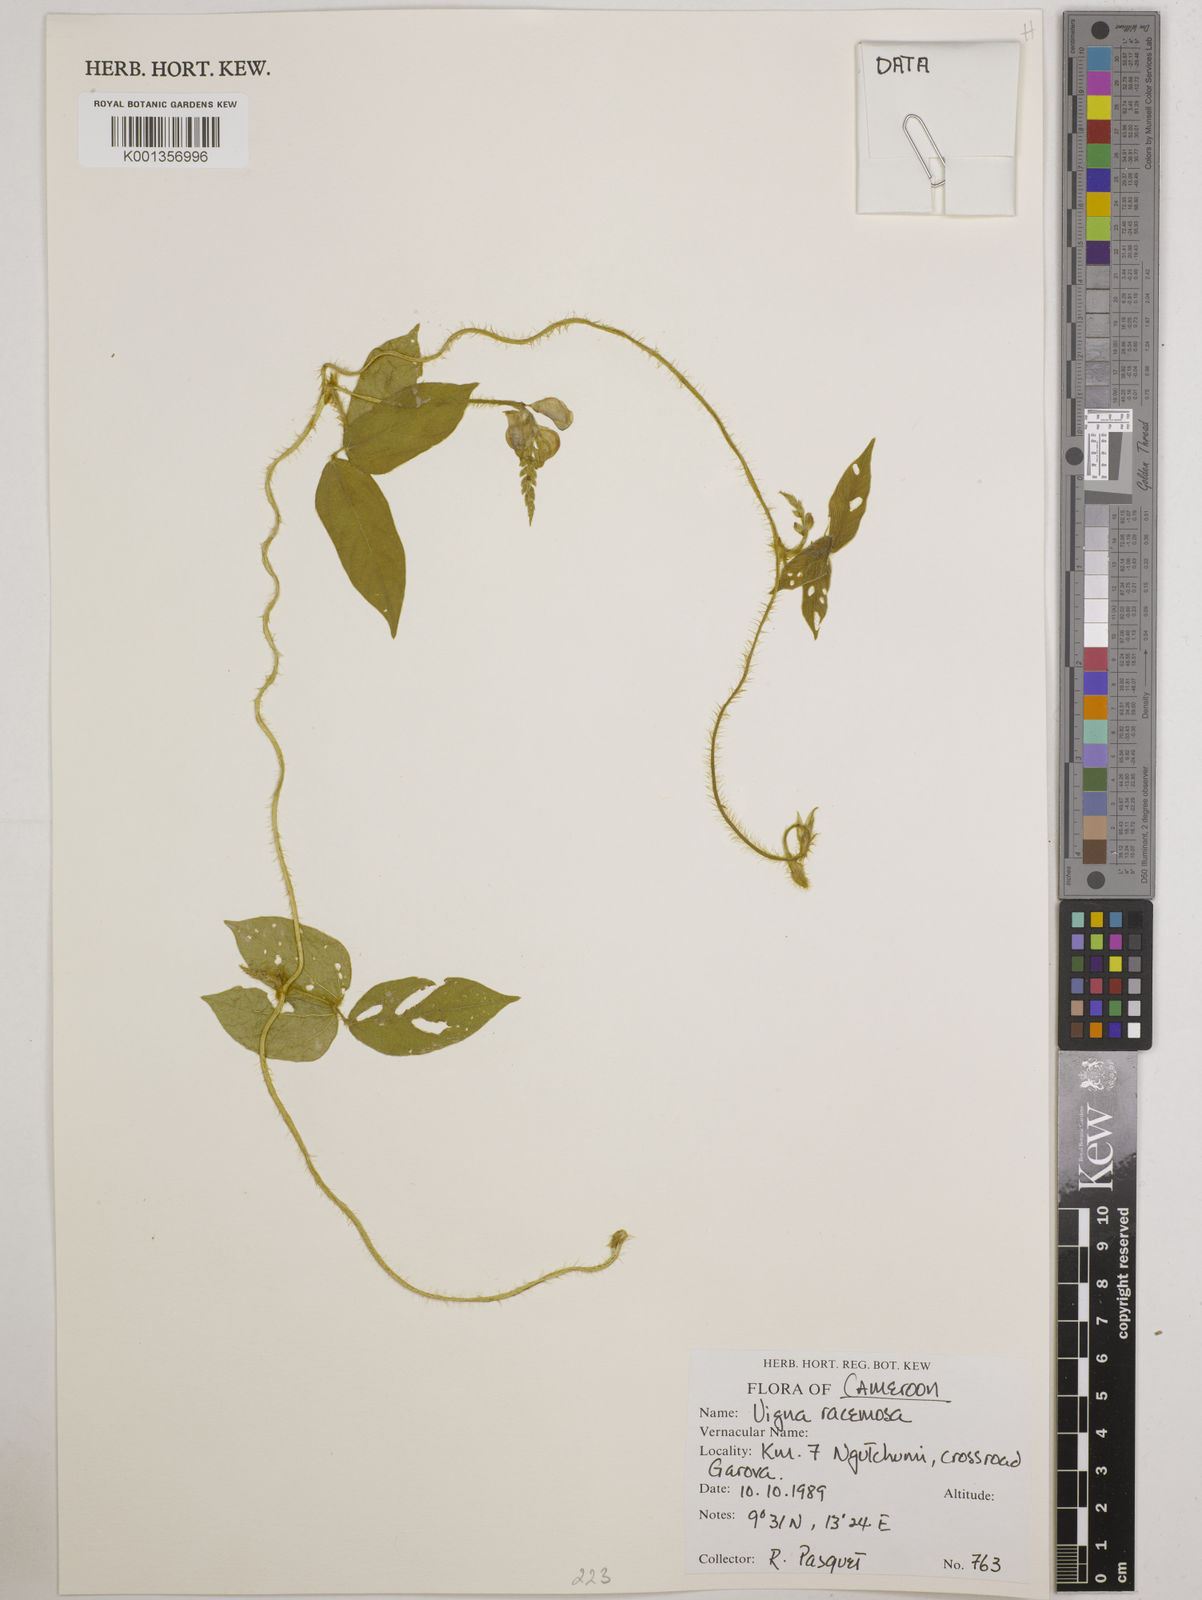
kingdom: Plantae
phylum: Tracheophyta
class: Magnoliopsida
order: Fabales
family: Fabaceae
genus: Vigna
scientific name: Vigna racemosa
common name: Beans not eaten
